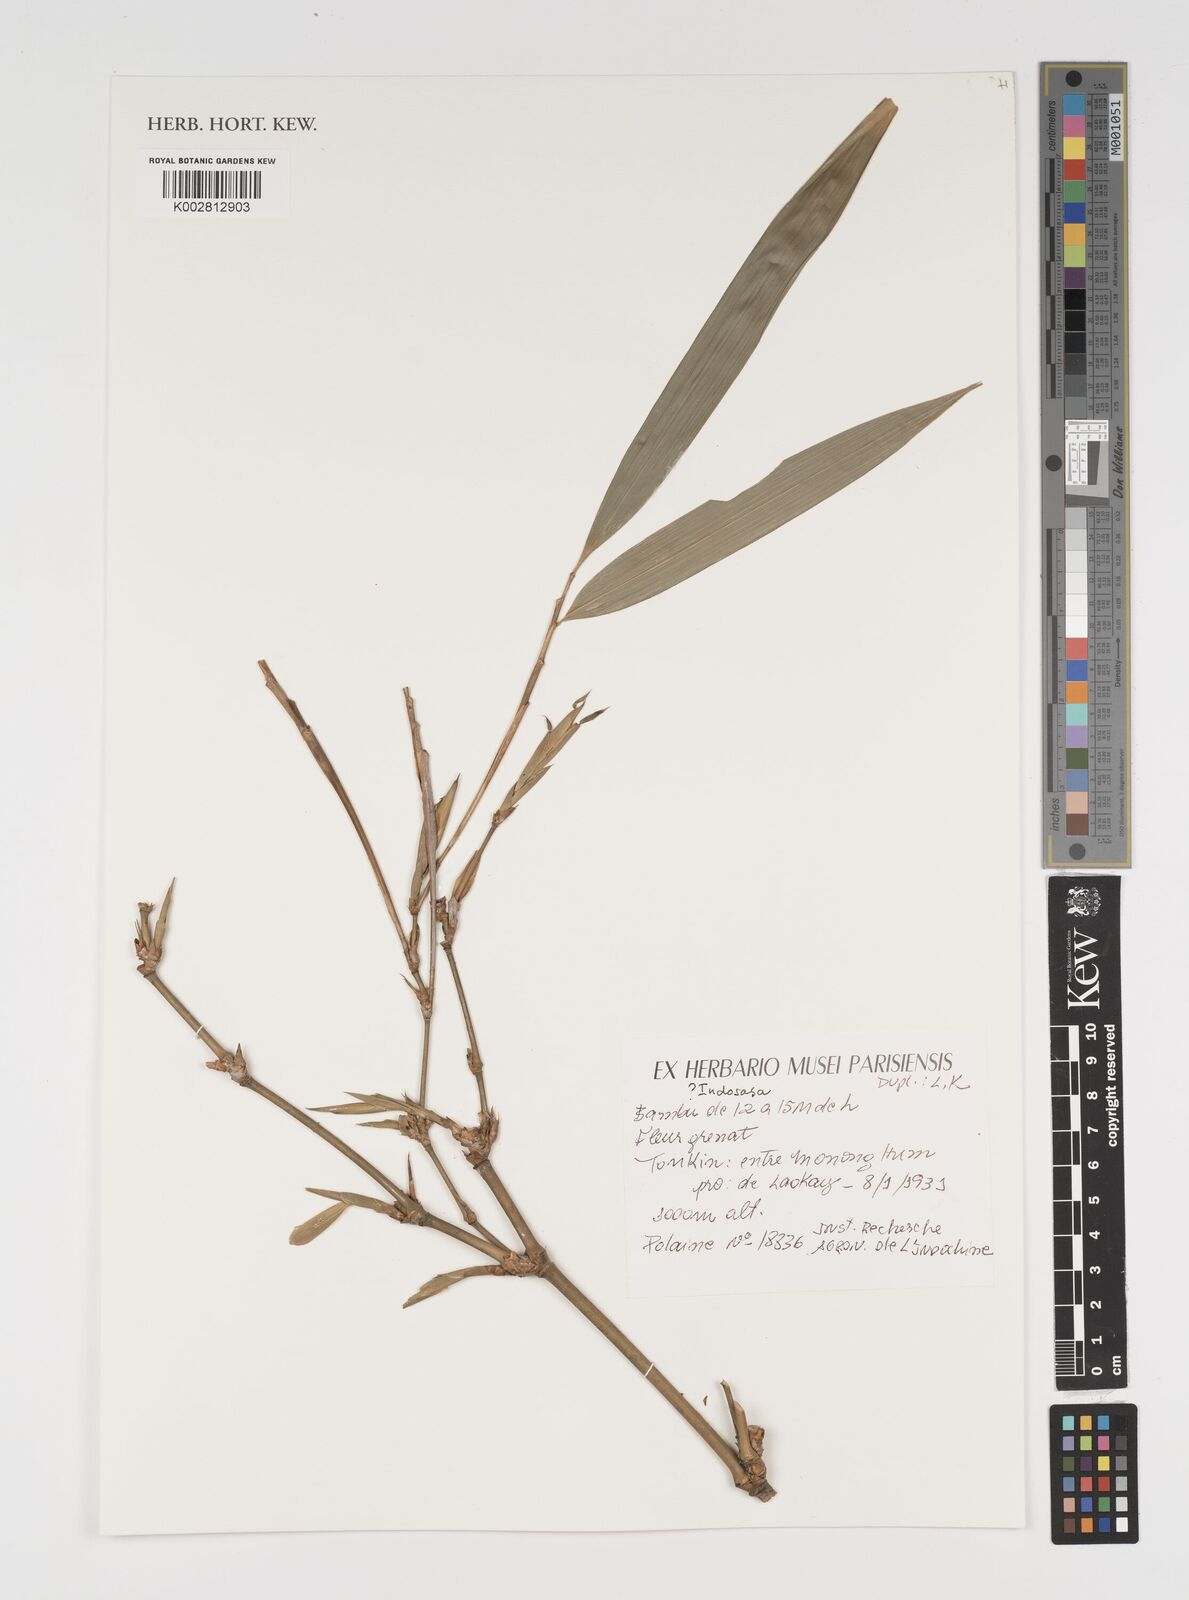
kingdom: Plantae
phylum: Tracheophyta
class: Liliopsida
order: Poales
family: Poaceae
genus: Indosasa
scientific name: Indosasa
